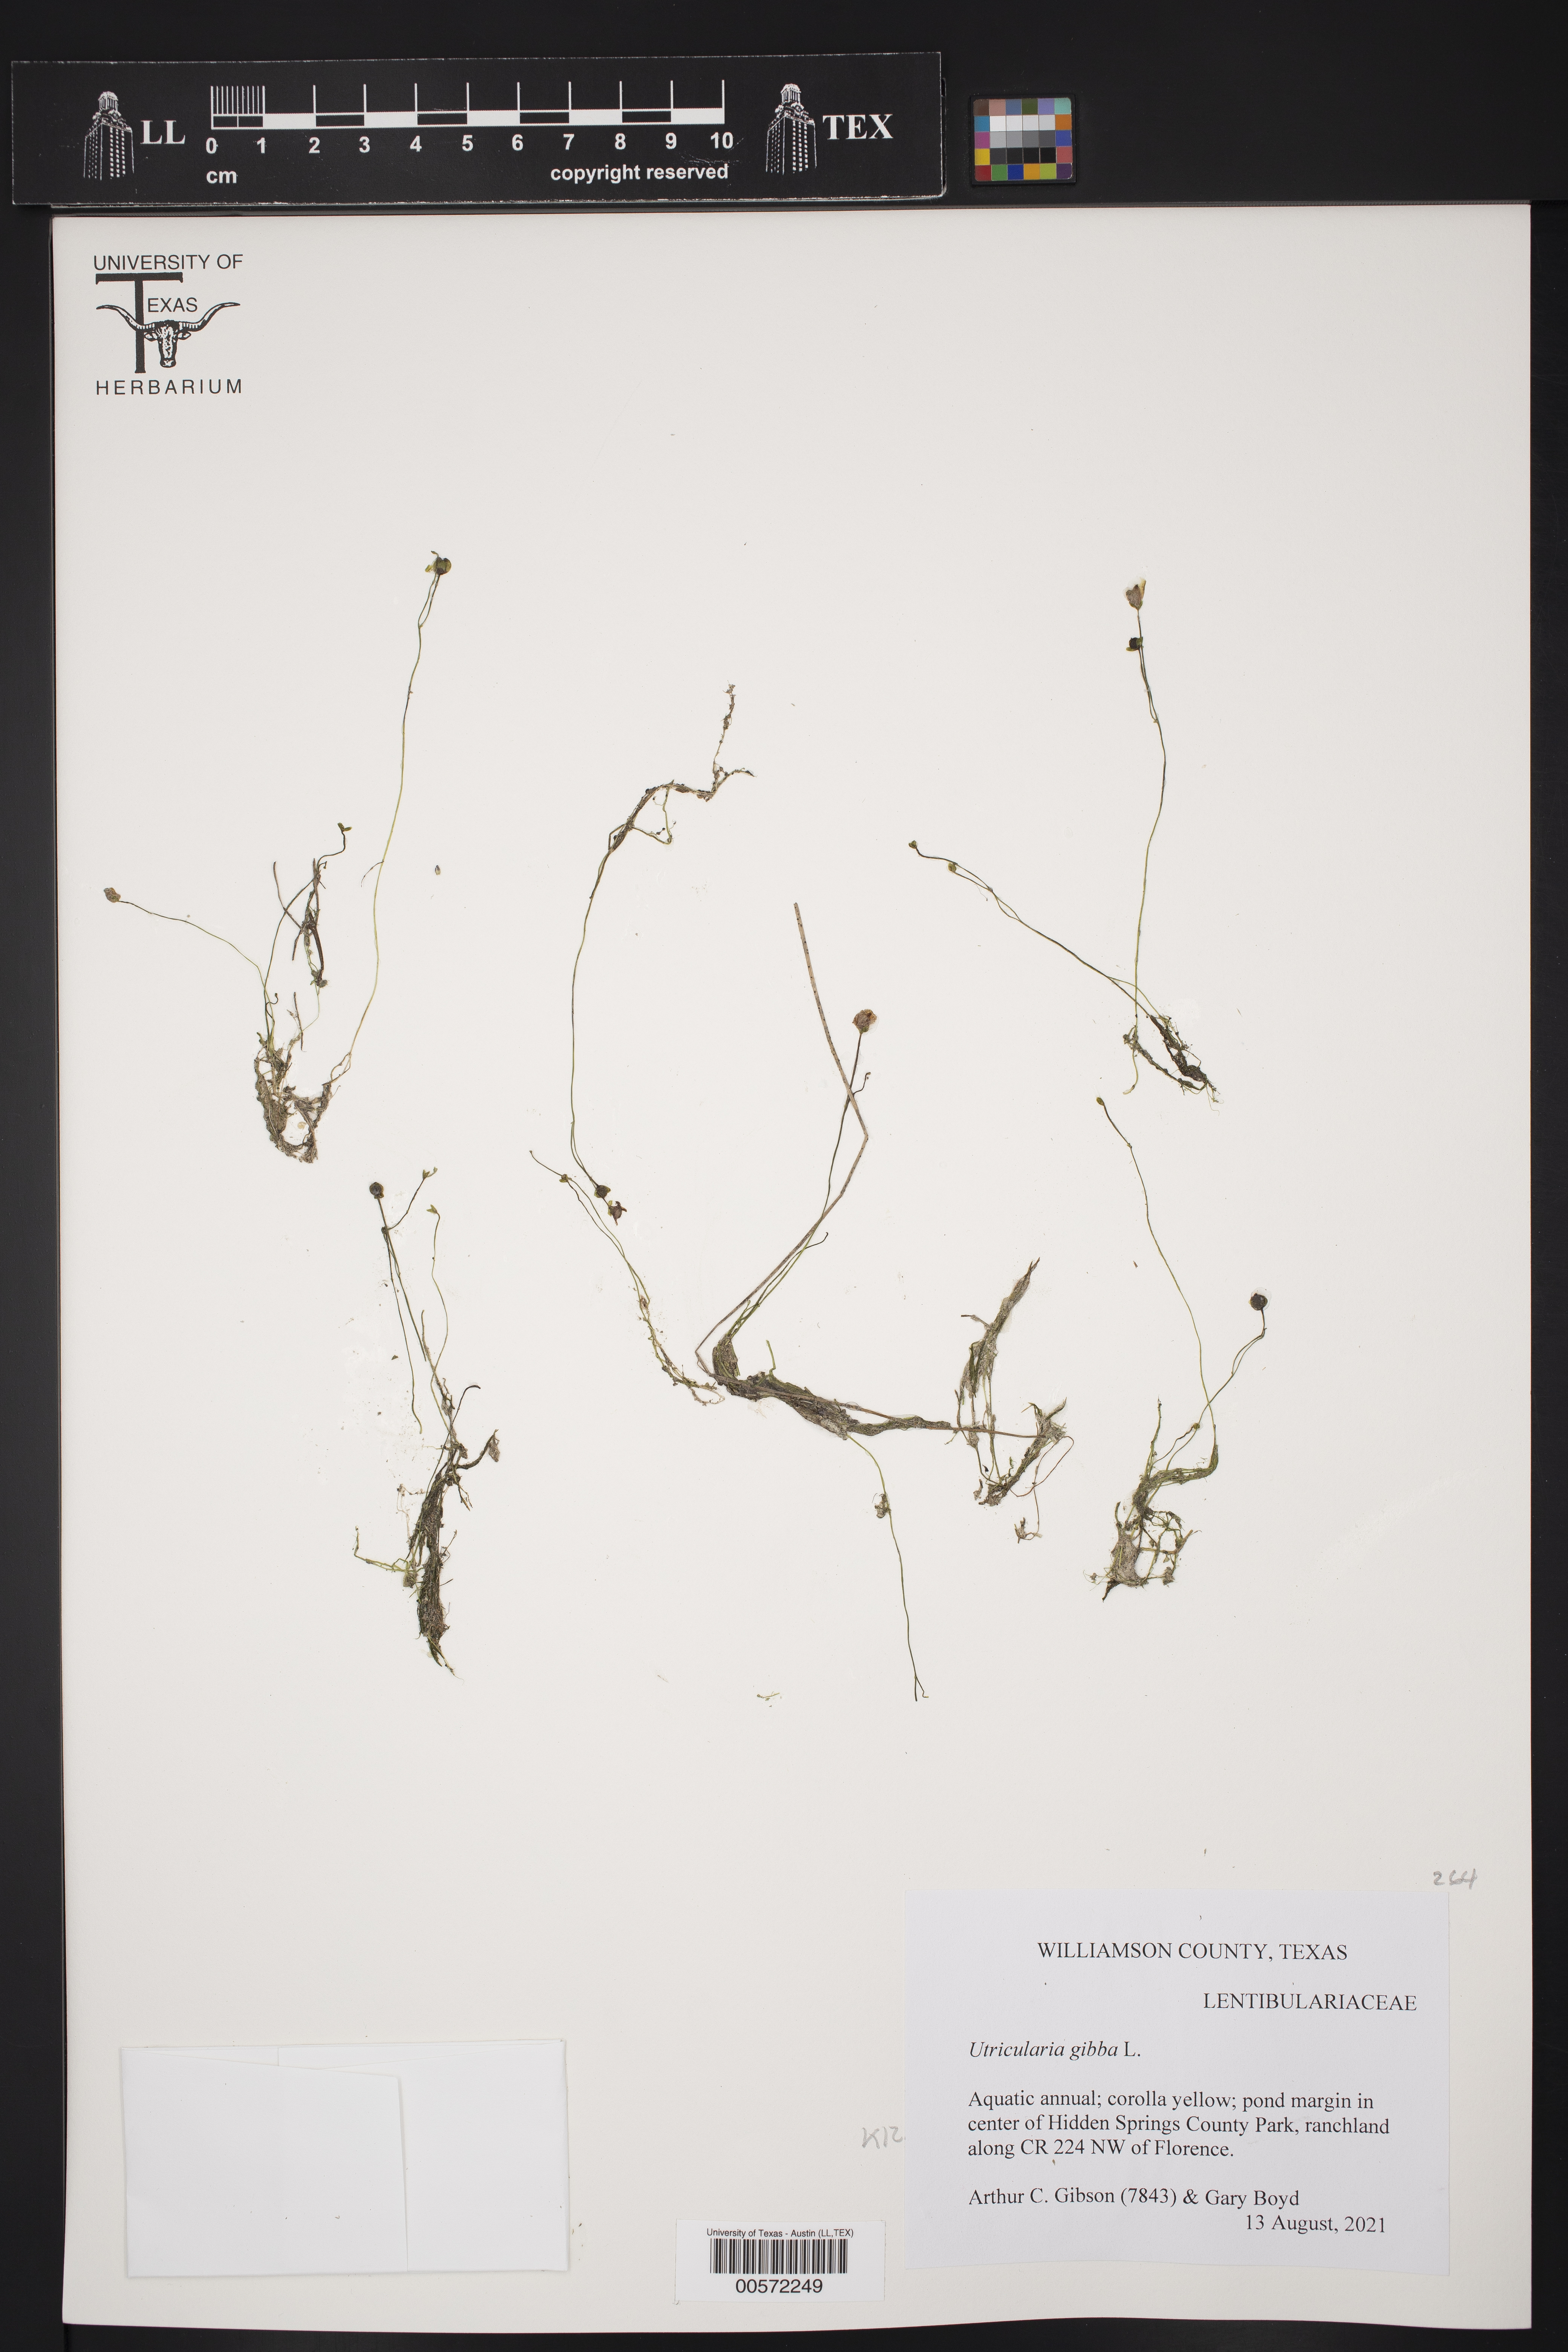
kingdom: Plantae
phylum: Tracheophyta
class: Magnoliopsida
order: Lamiales
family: Lentibulariaceae
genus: Utricularia
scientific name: Utricularia gibba
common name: Humped bladderwort
